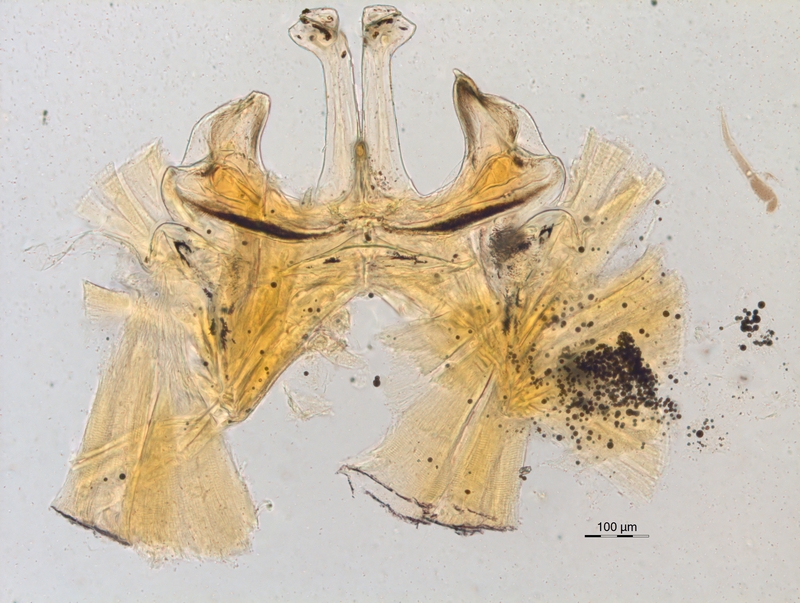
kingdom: Animalia
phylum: Arthropoda
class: Diplopoda
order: Chordeumatida
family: Attemsiidae
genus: Polyphematia
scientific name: Polyphematia moniliformis
